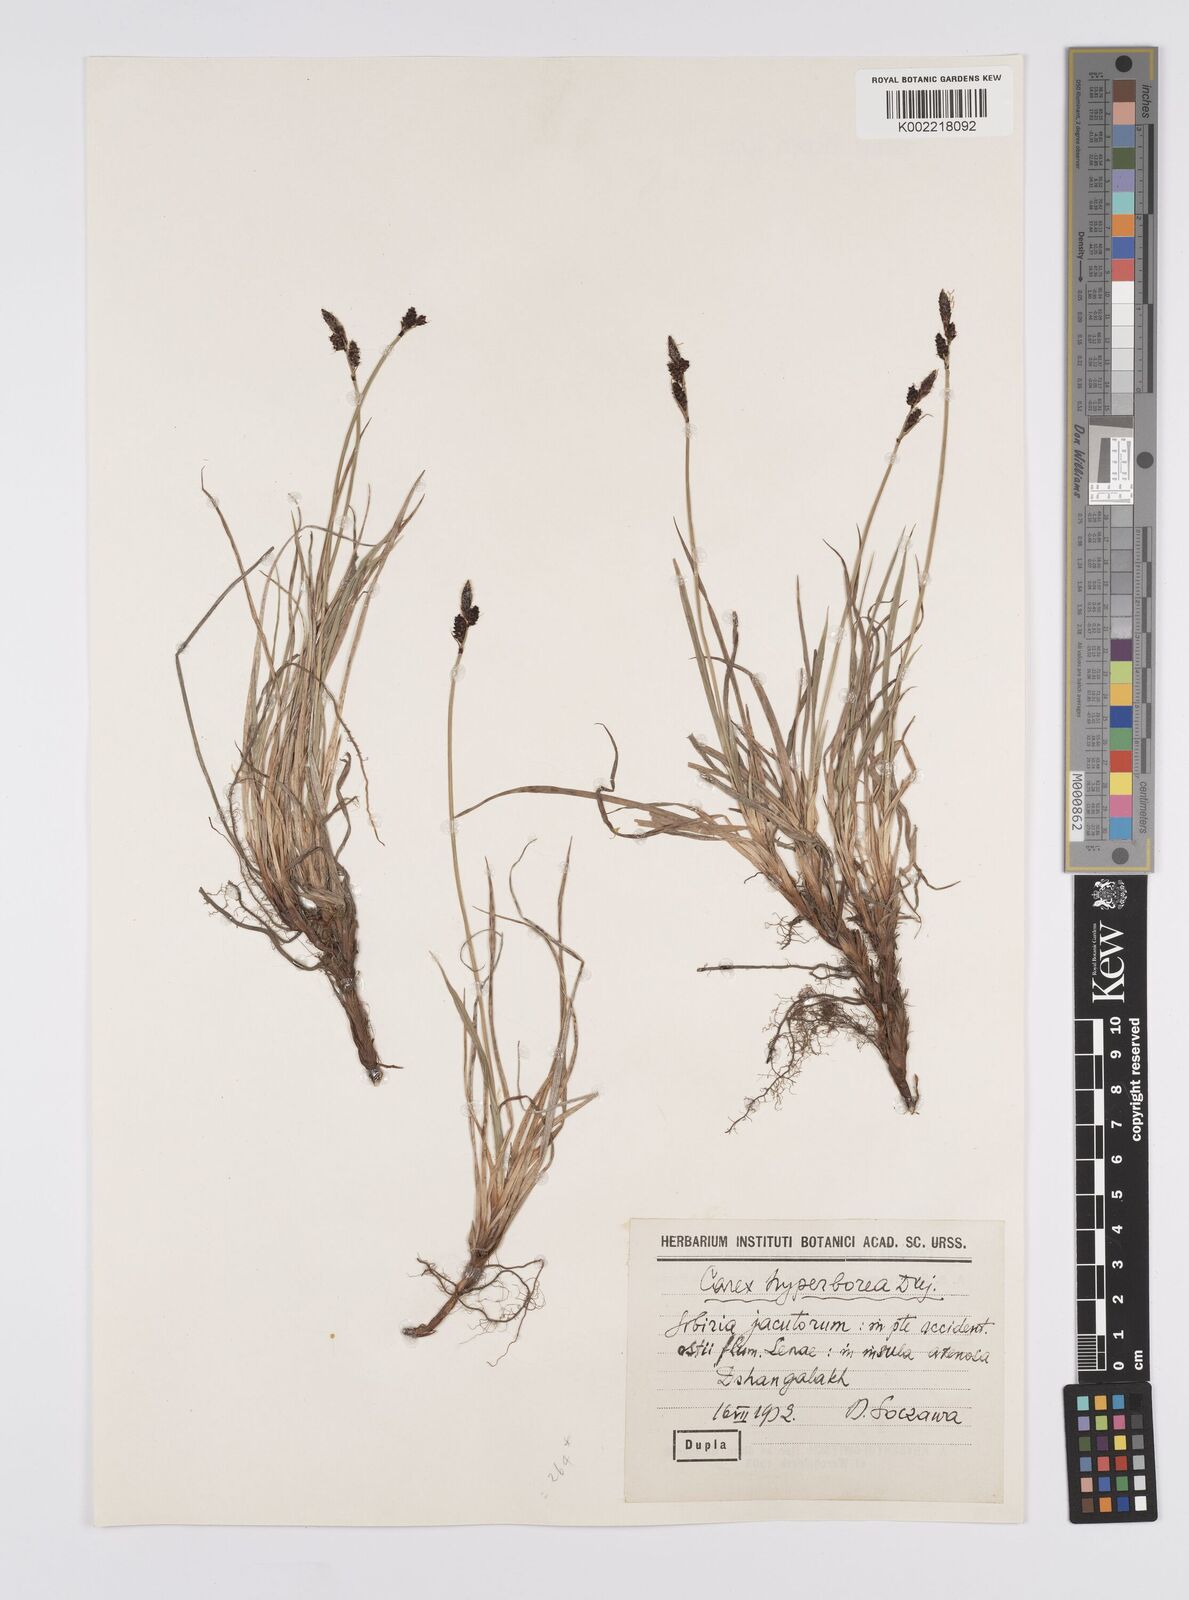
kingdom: Plantae
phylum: Tracheophyta
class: Liliopsida
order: Poales
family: Cyperaceae
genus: Carex
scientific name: Carex aquatilis
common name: Water sedge
